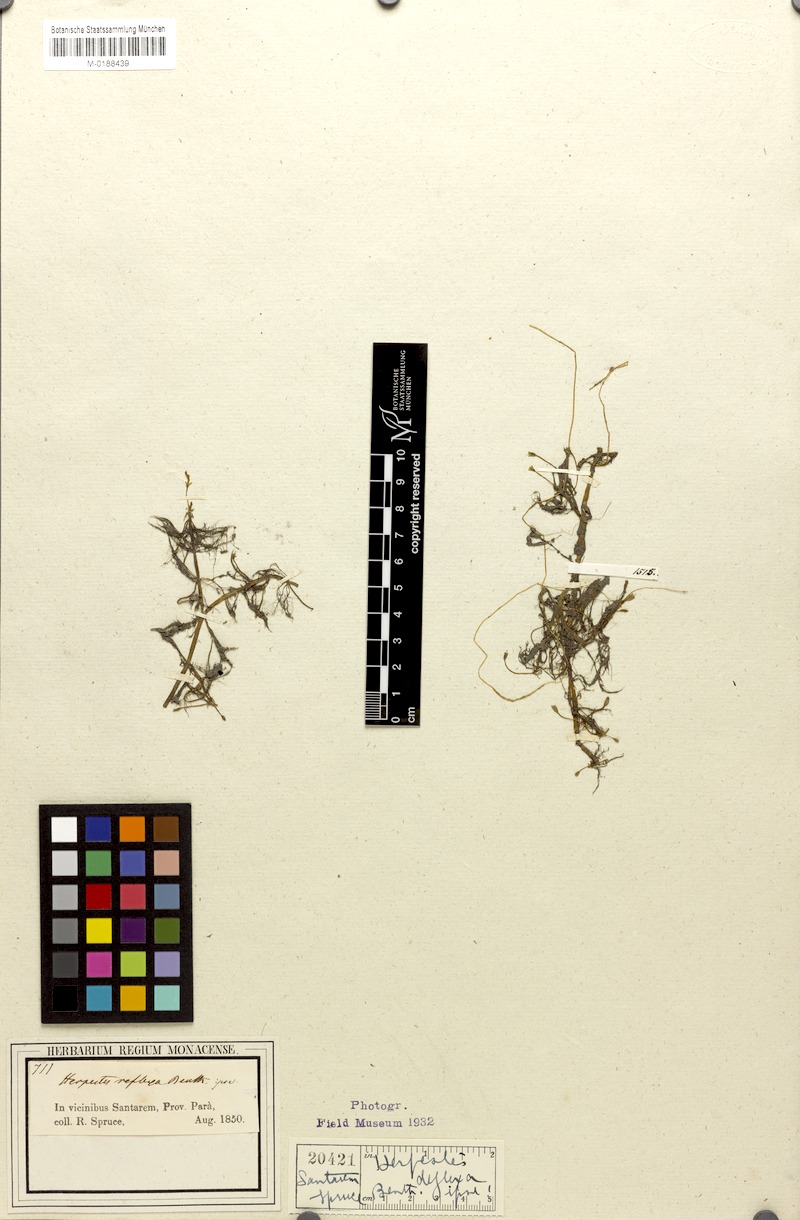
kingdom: Plantae
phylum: Tracheophyta
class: Magnoliopsida
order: Lamiales
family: Plantaginaceae
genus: Bacopa
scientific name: Bacopa reflexa
